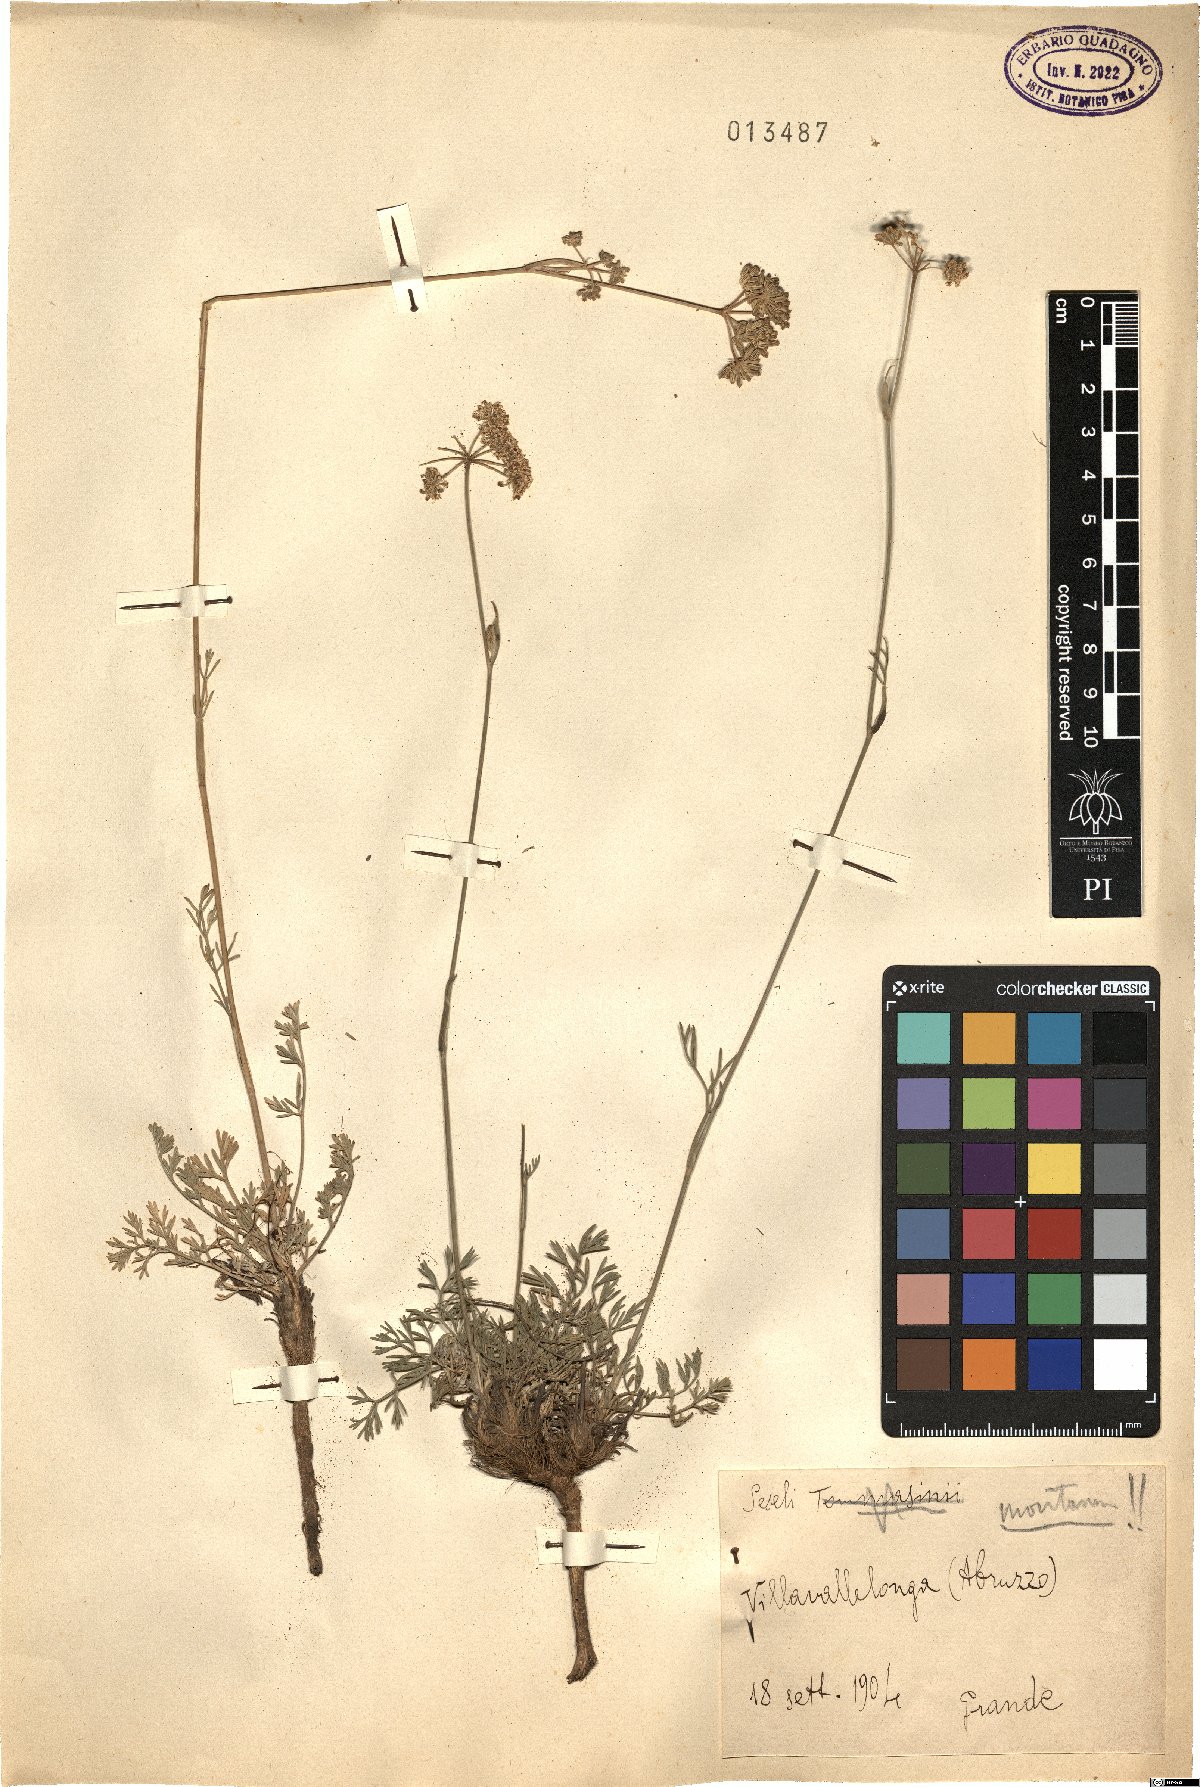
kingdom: Plantae
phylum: Tracheophyta
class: Magnoliopsida
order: Apiales
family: Apiaceae
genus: Seseli
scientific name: Seseli montanum
